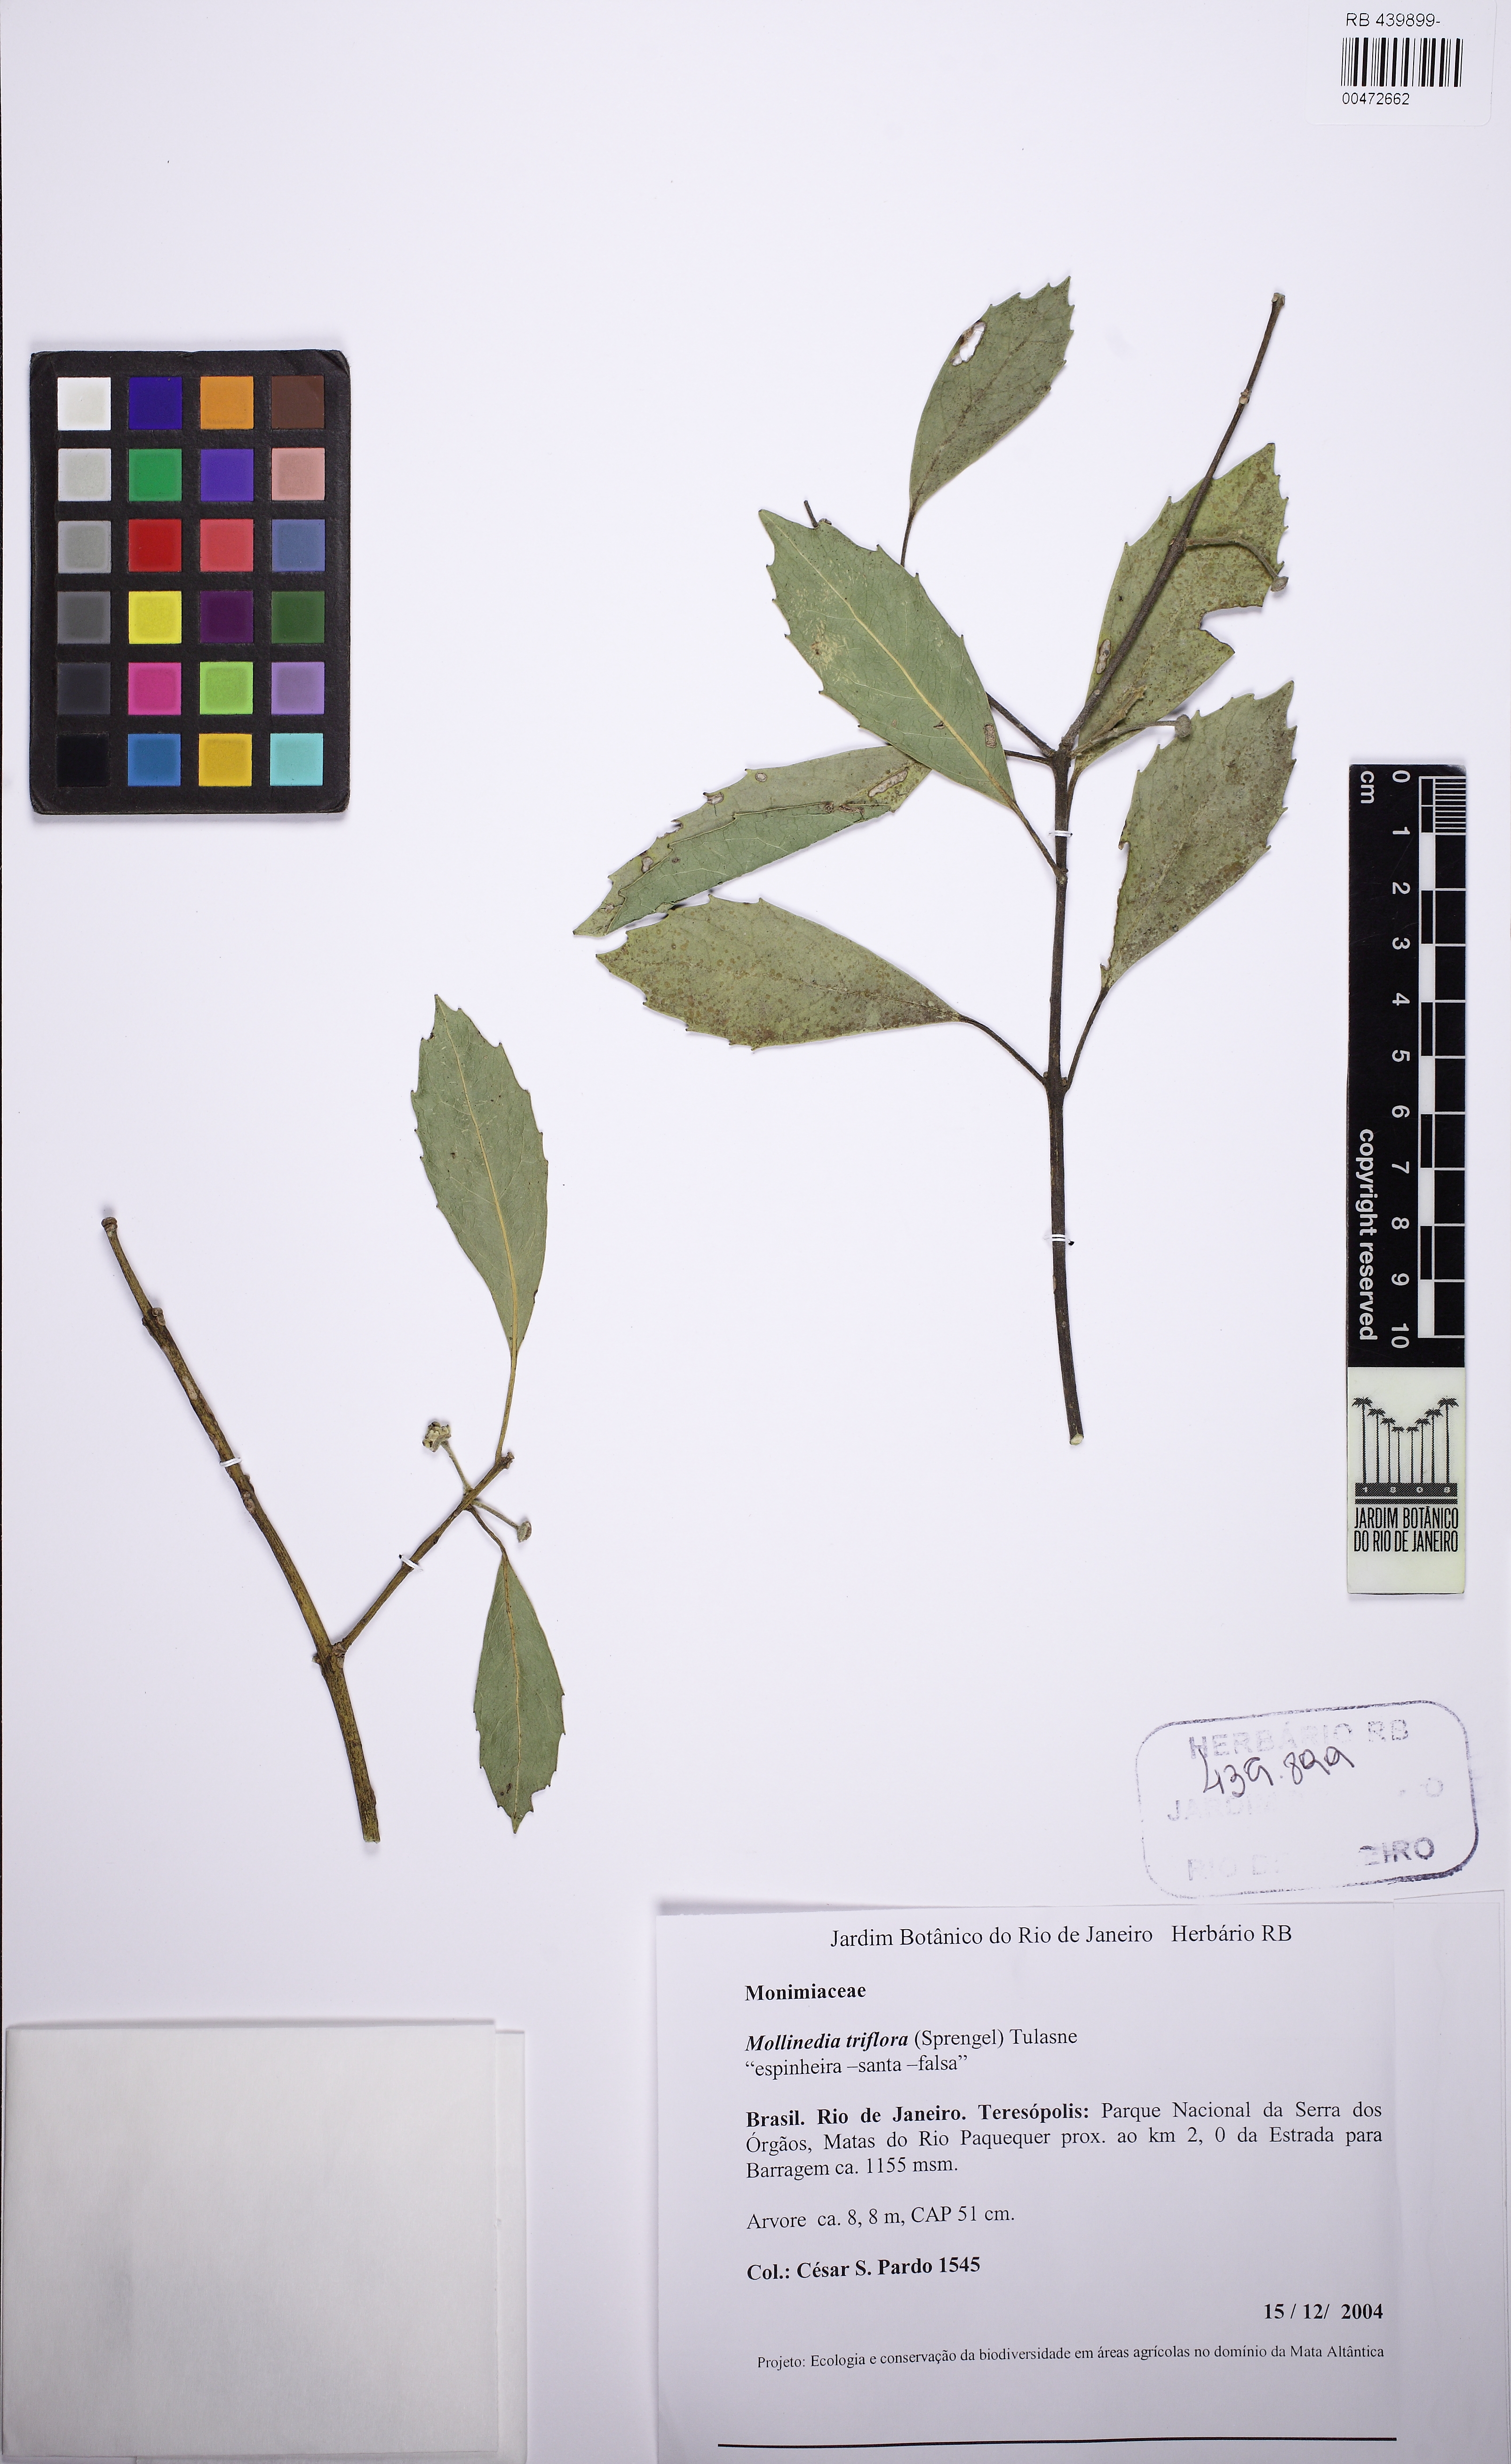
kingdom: Plantae
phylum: Tracheophyta
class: Magnoliopsida
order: Laurales
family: Monimiaceae
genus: Mollinedia
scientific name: Mollinedia triflora
